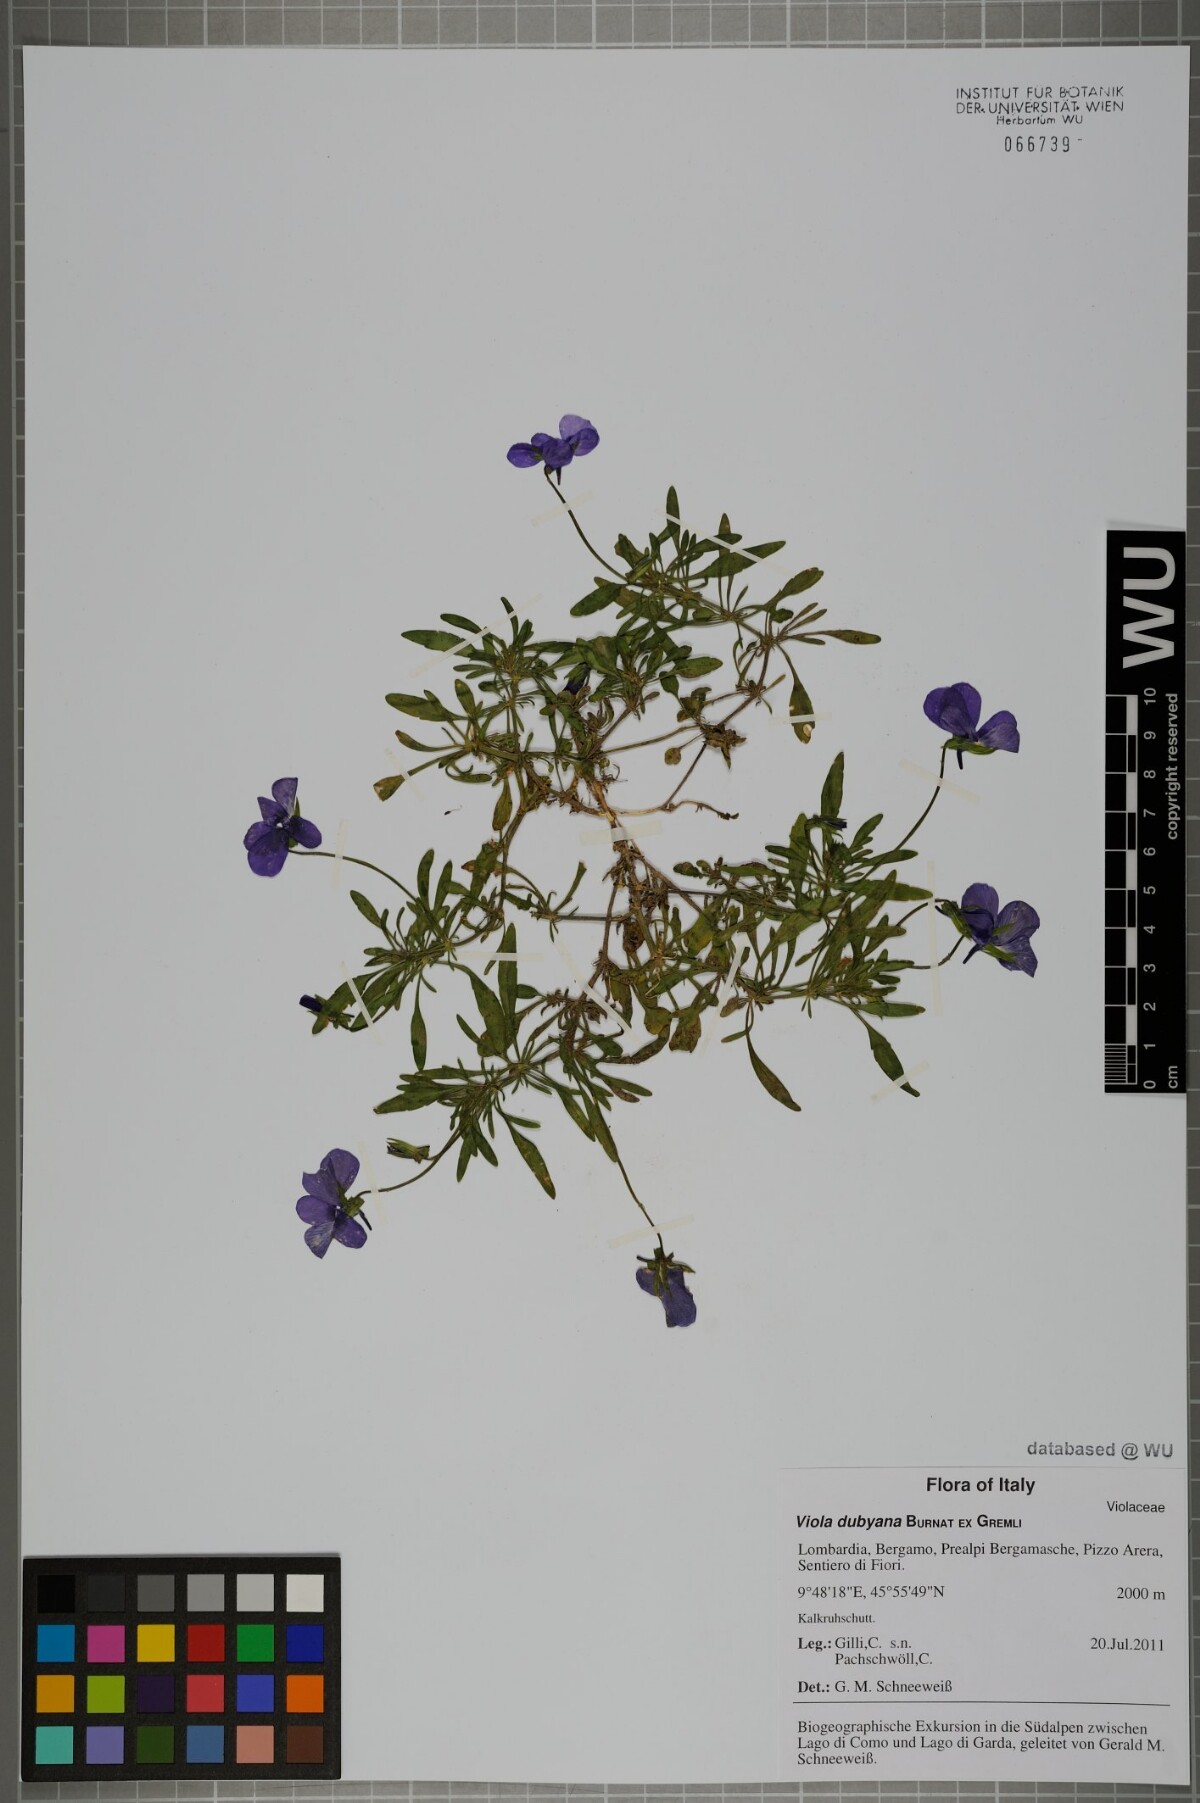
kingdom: Plantae
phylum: Tracheophyta
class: Magnoliopsida
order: Malpighiales
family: Violaceae
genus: Viola
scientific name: Viola dubyana
